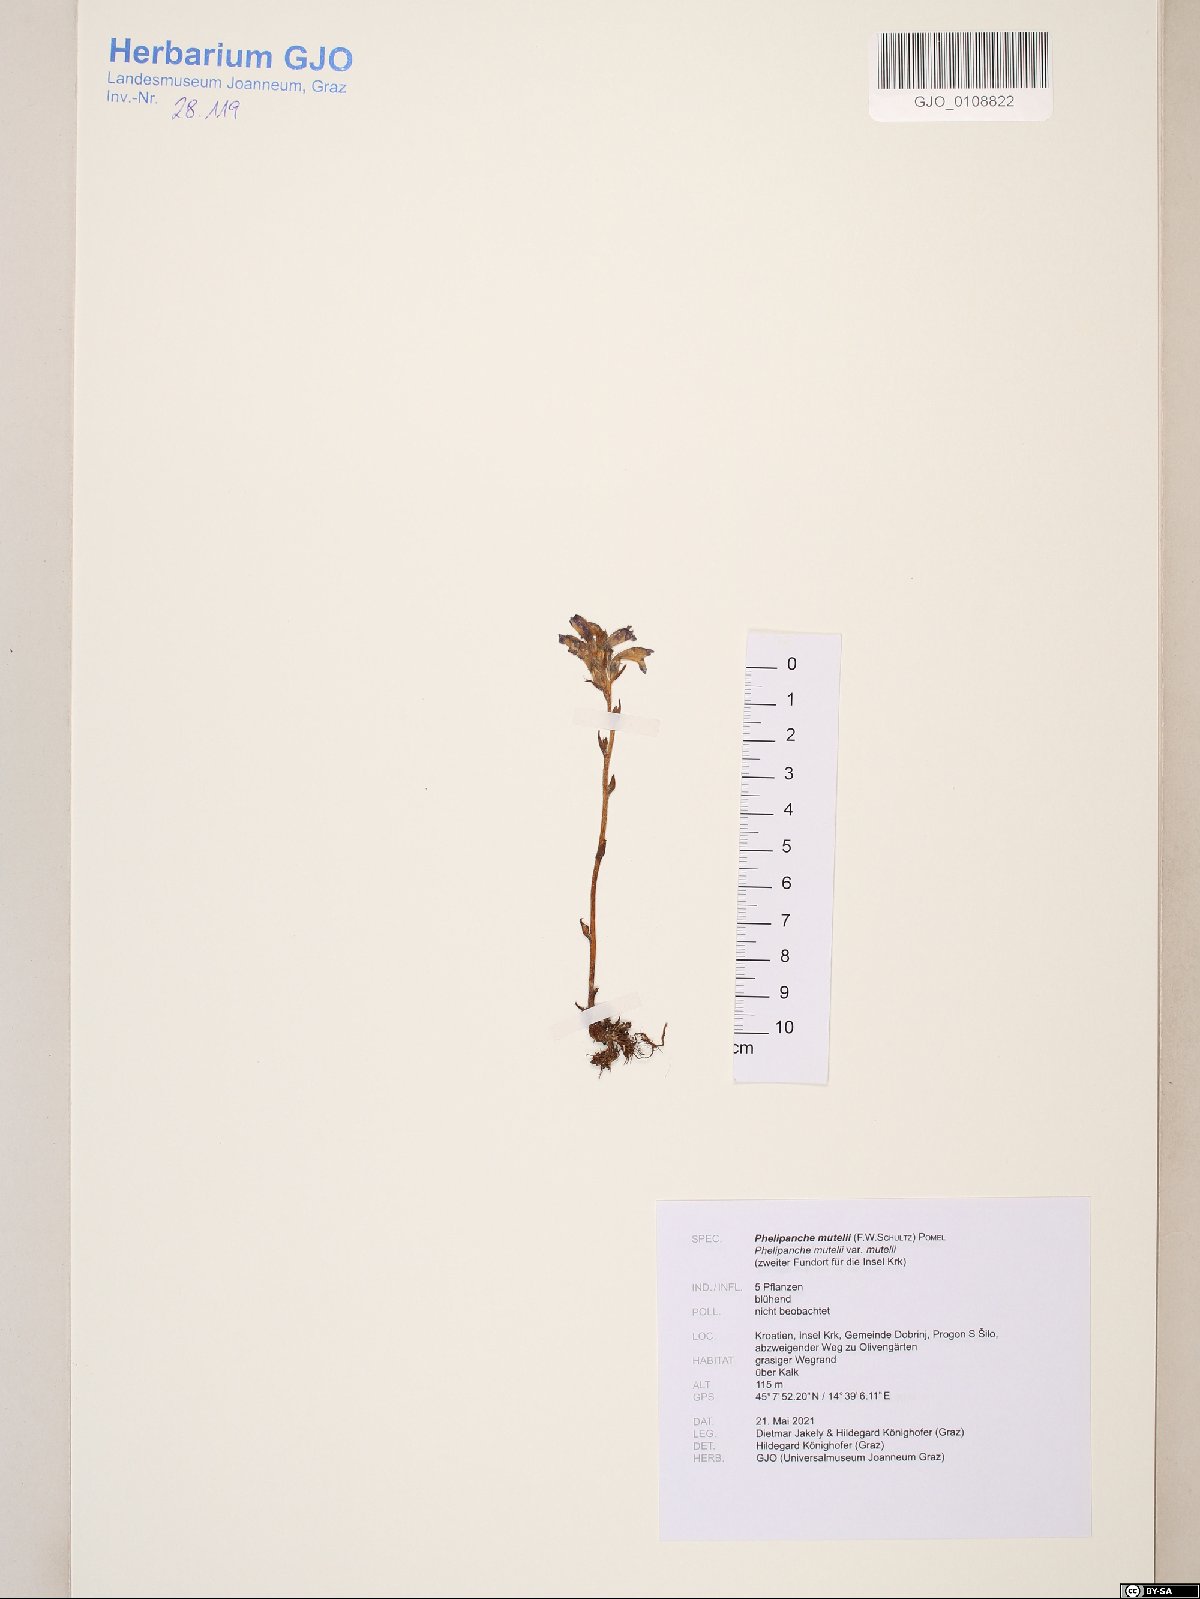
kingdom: Plantae
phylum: Tracheophyta
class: Magnoliopsida
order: Lamiales
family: Orobanchaceae
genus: Phelipanche
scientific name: Phelipanche mutelii
